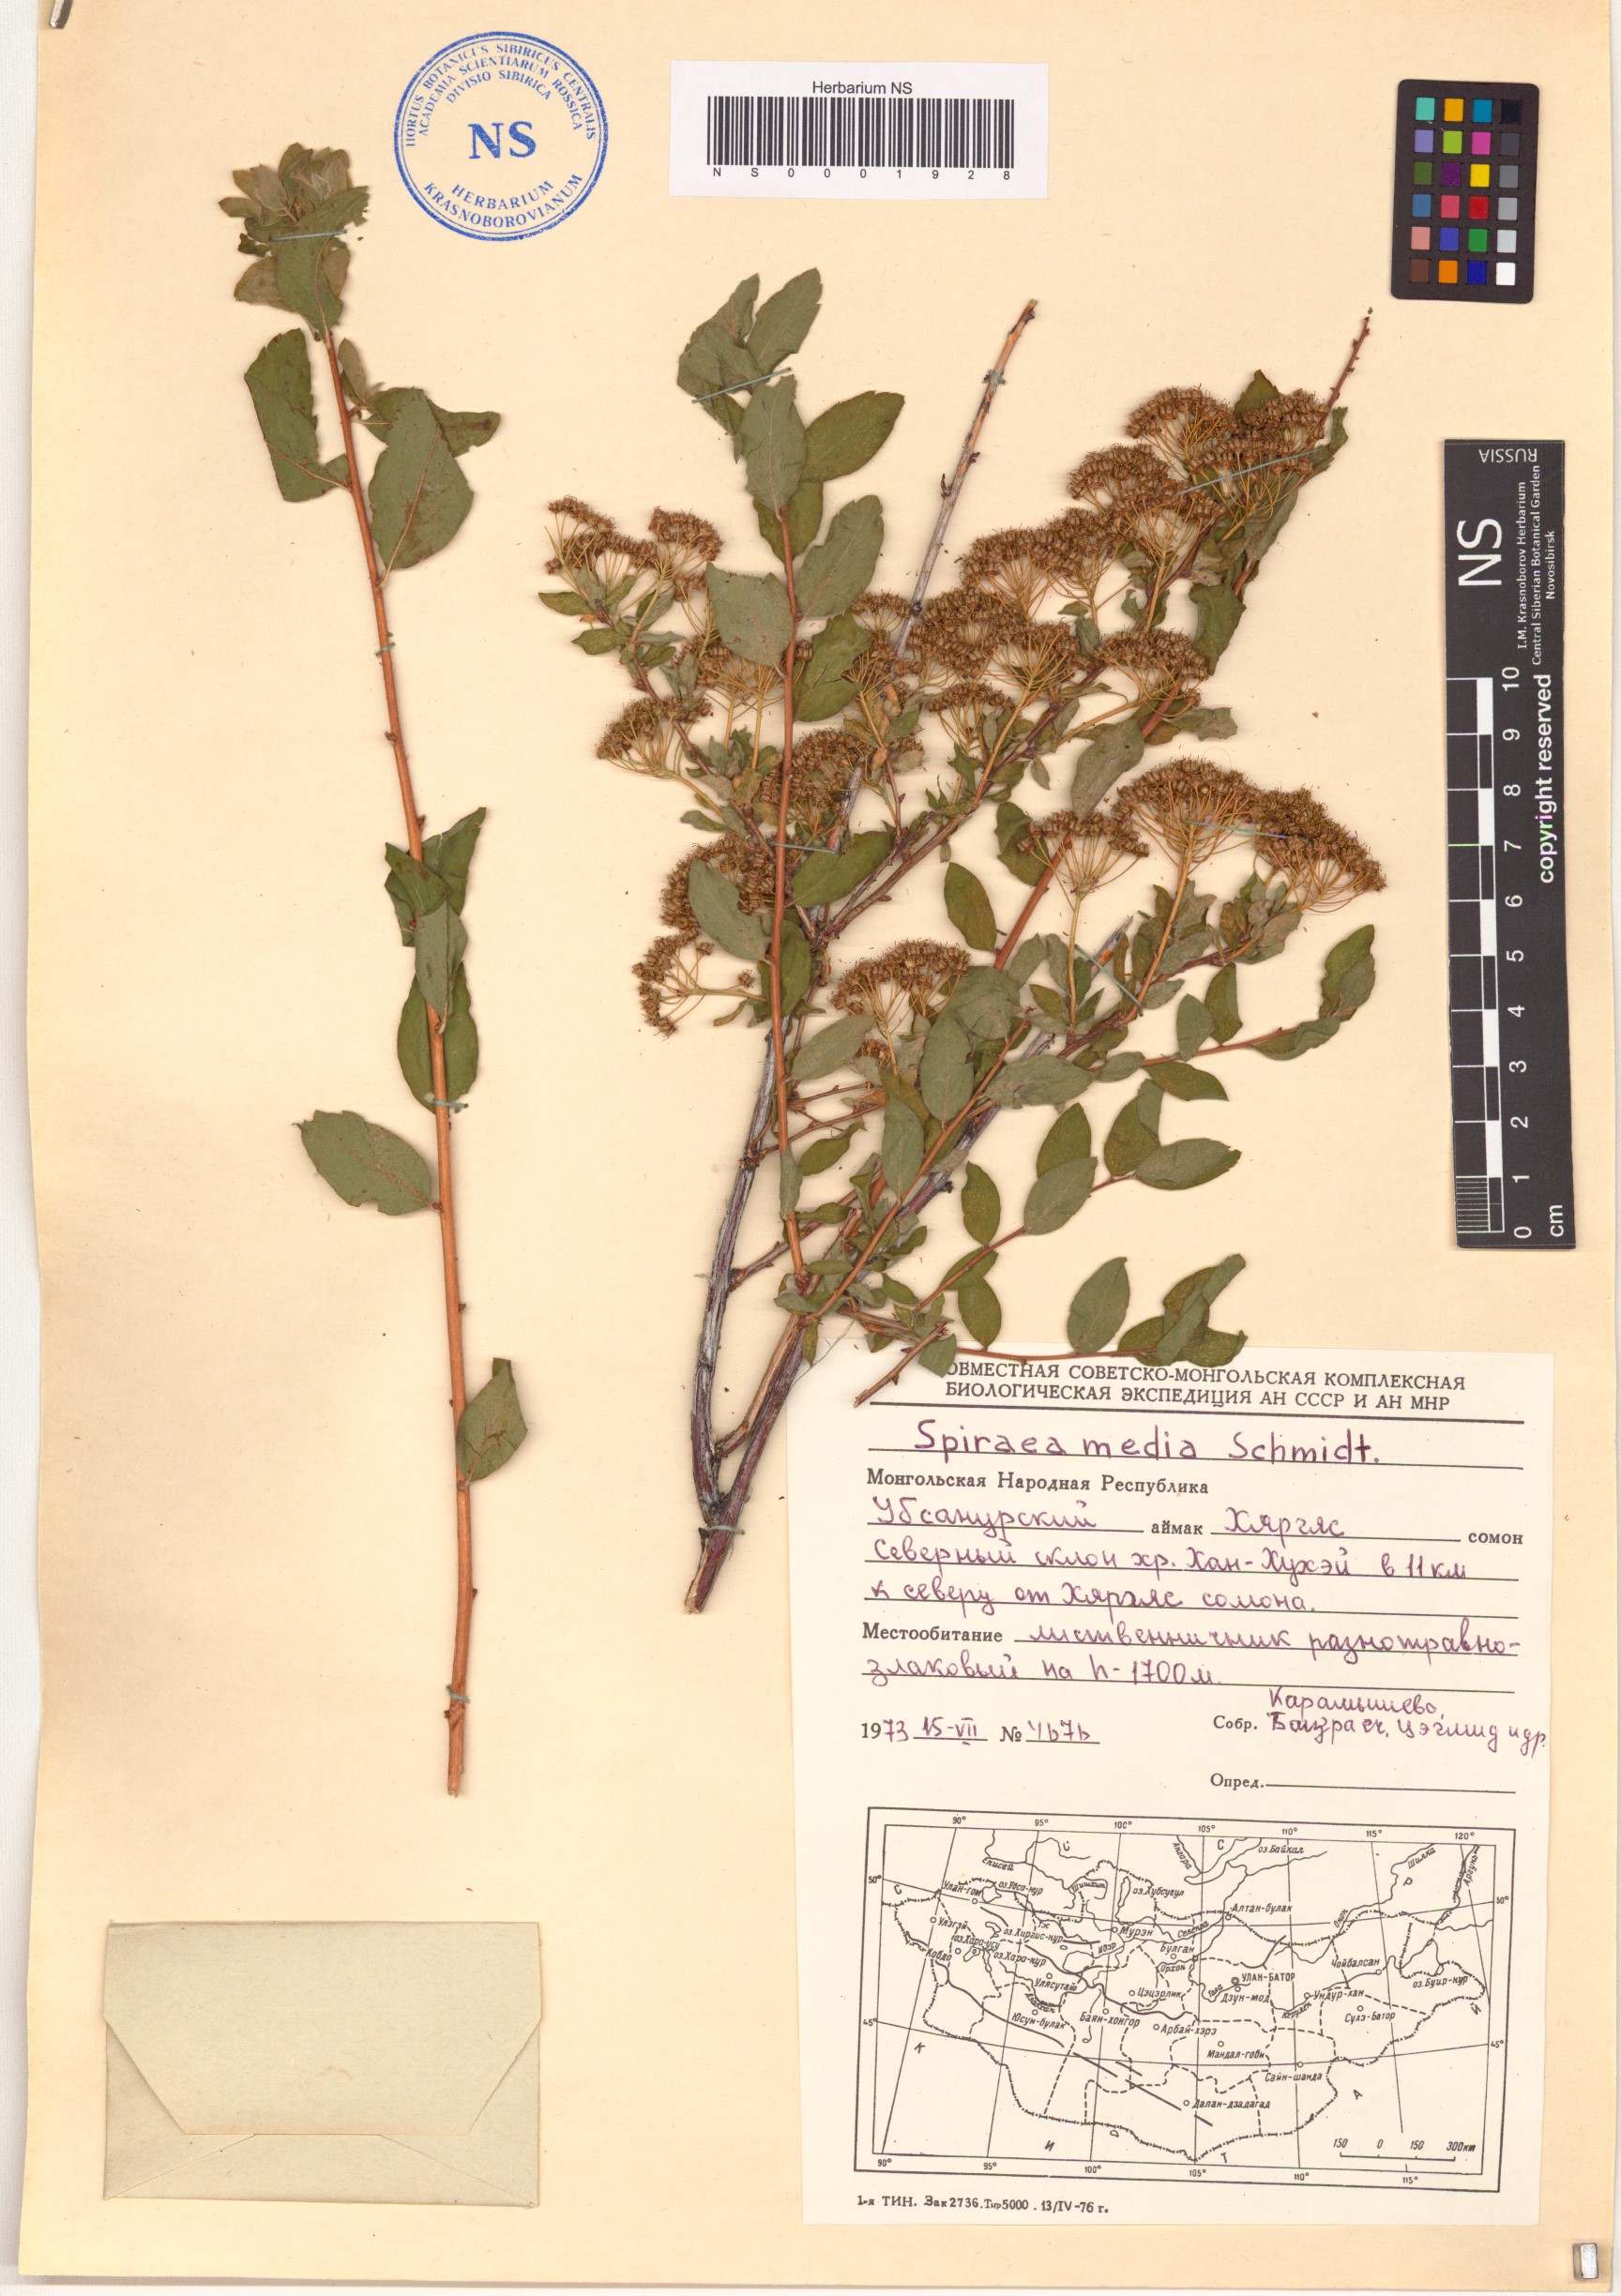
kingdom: Plantae
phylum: Tracheophyta
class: Magnoliopsida
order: Rosales
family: Rosaceae
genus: Spiraea
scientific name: Spiraea media
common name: Russian spiraea
